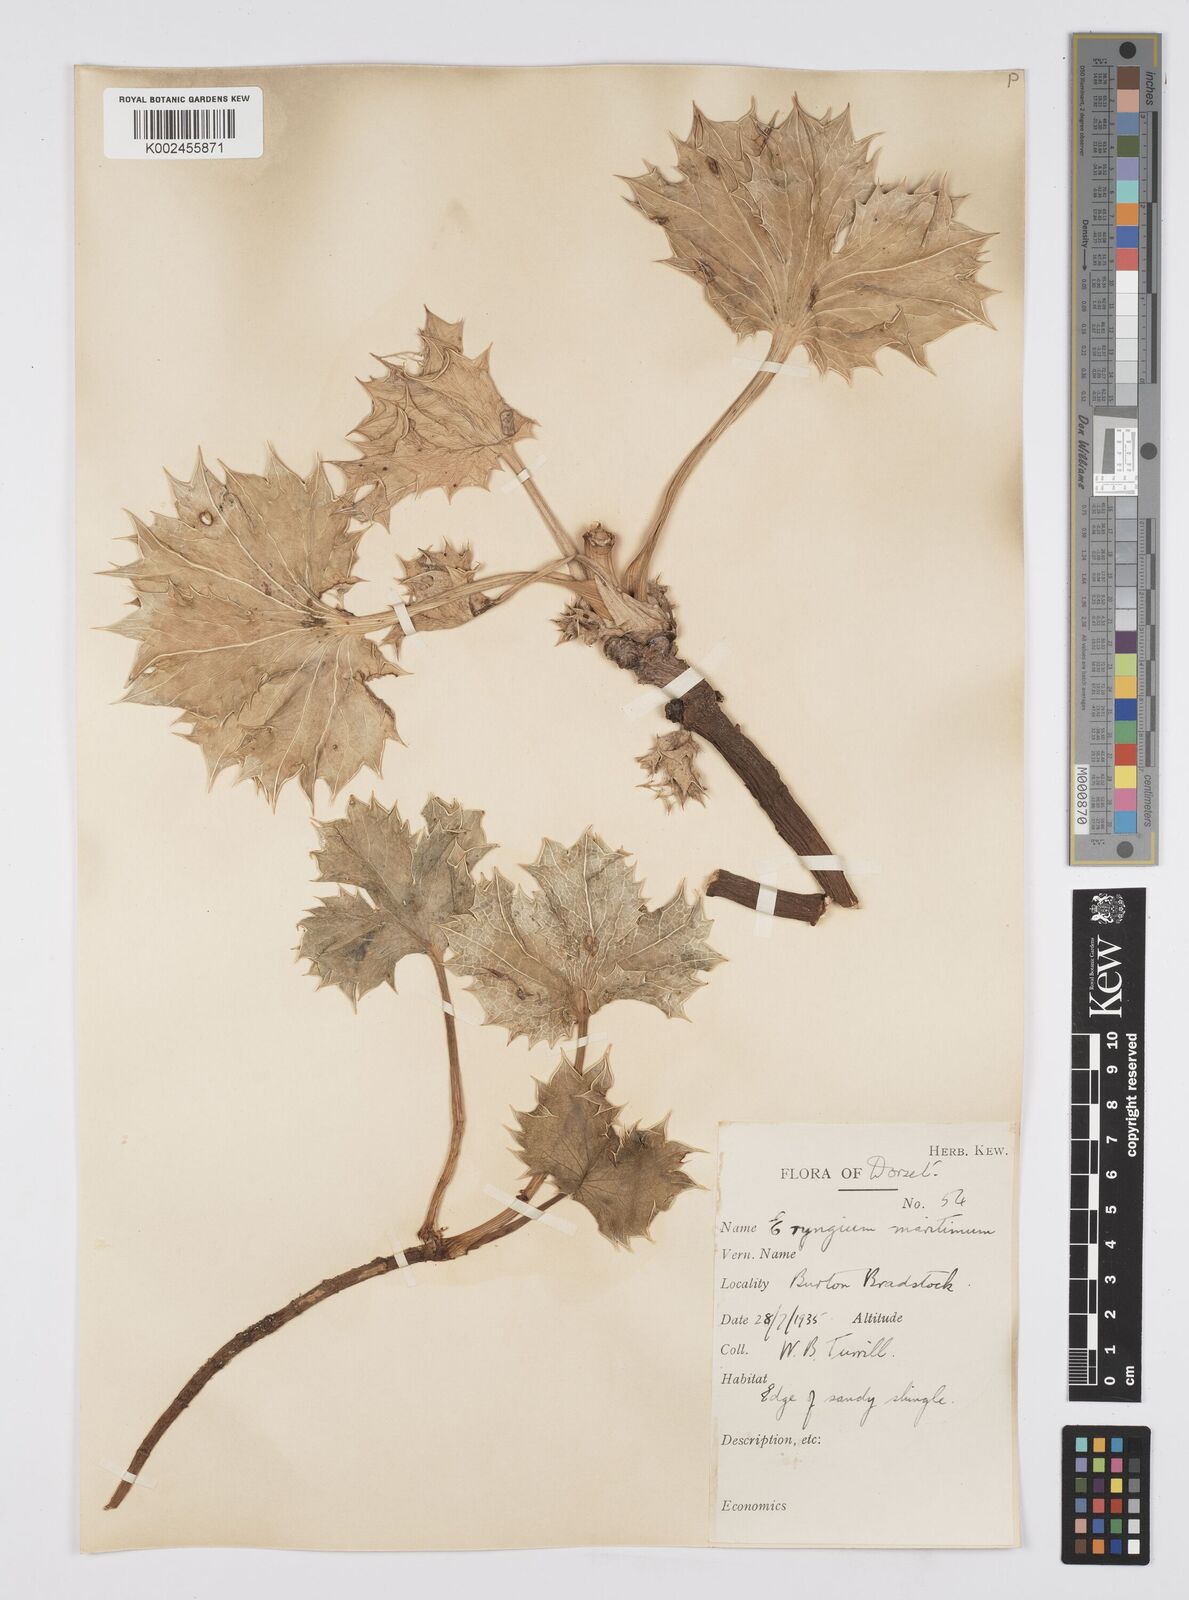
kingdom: Plantae
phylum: Tracheophyta
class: Magnoliopsida
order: Apiales
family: Apiaceae
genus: Eryngium
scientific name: Eryngium maritimum
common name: Sea-holly
